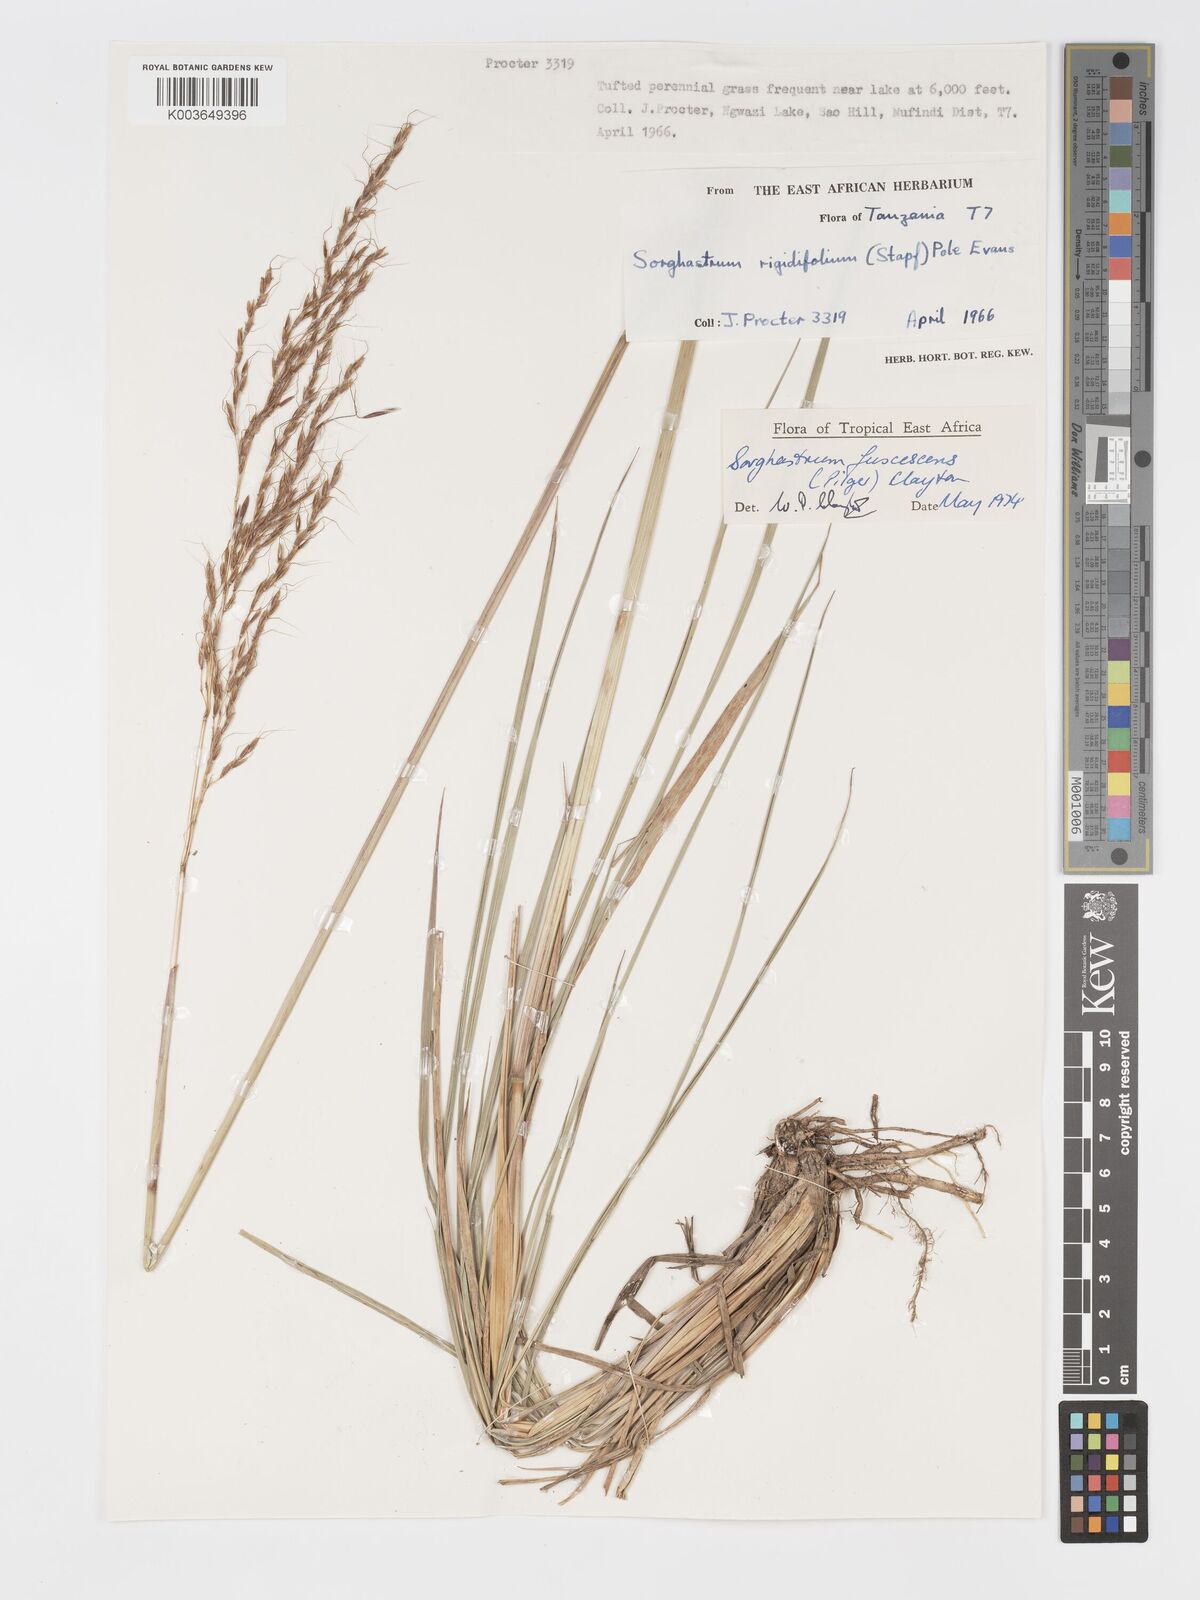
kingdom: Plantae
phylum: Tracheophyta
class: Liliopsida
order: Poales
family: Poaceae
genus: Sorghastrum
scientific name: Sorghastrum fuscescens
